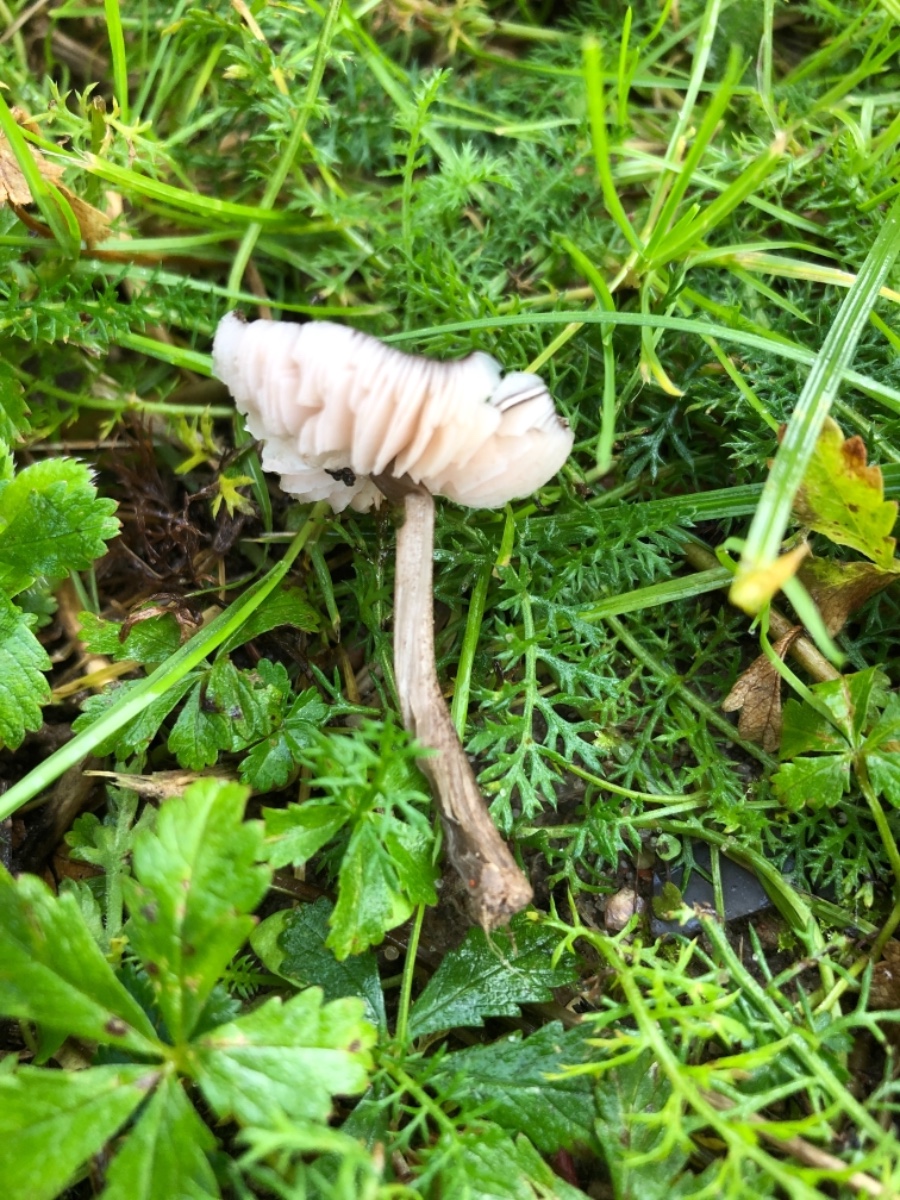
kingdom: Fungi
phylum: Basidiomycota
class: Agaricomycetes
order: Agaricales
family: Pluteaceae
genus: Pluteus
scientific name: Pluteus podospileus
